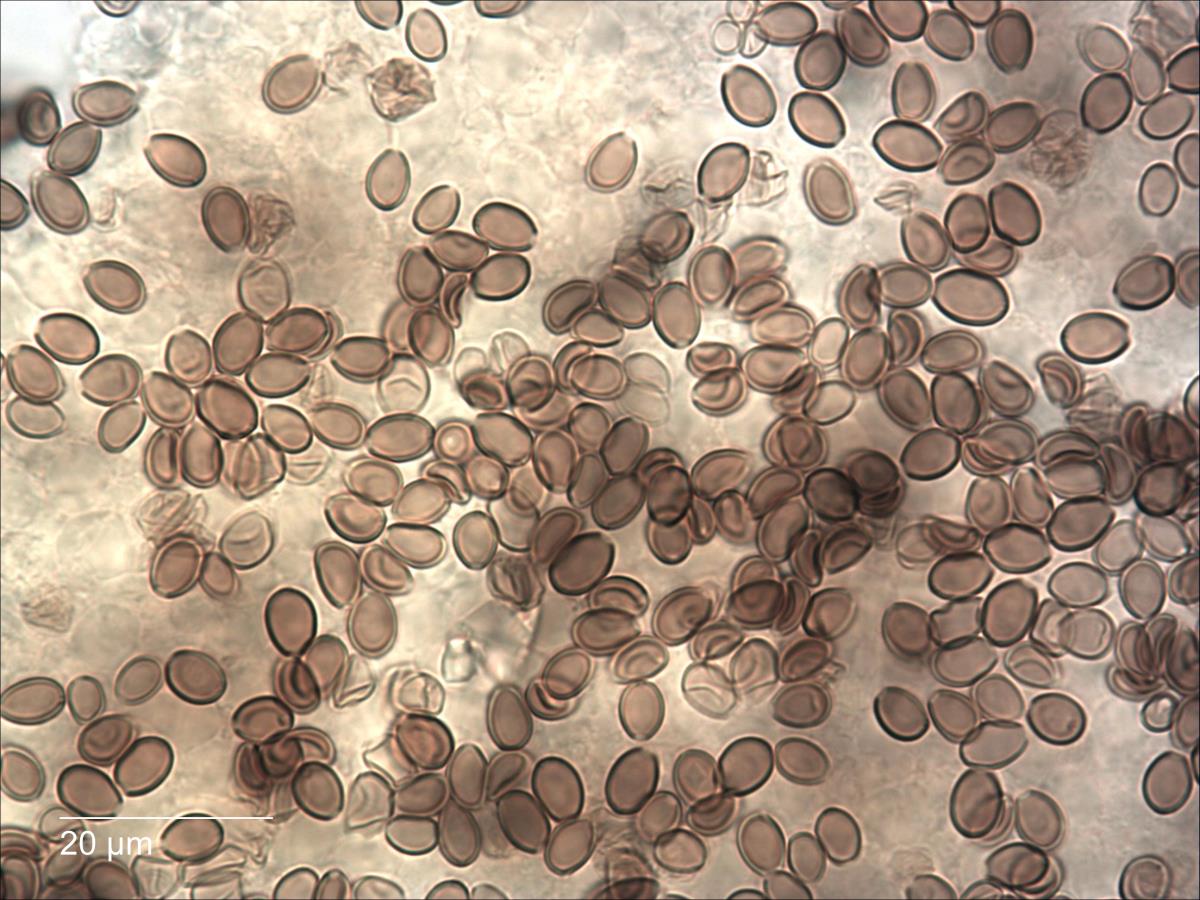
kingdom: Fungi
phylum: Basidiomycota
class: Agaricomycetes
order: Agaricales
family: Strophariaceae
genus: Melanotus
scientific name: Melanotus communis
